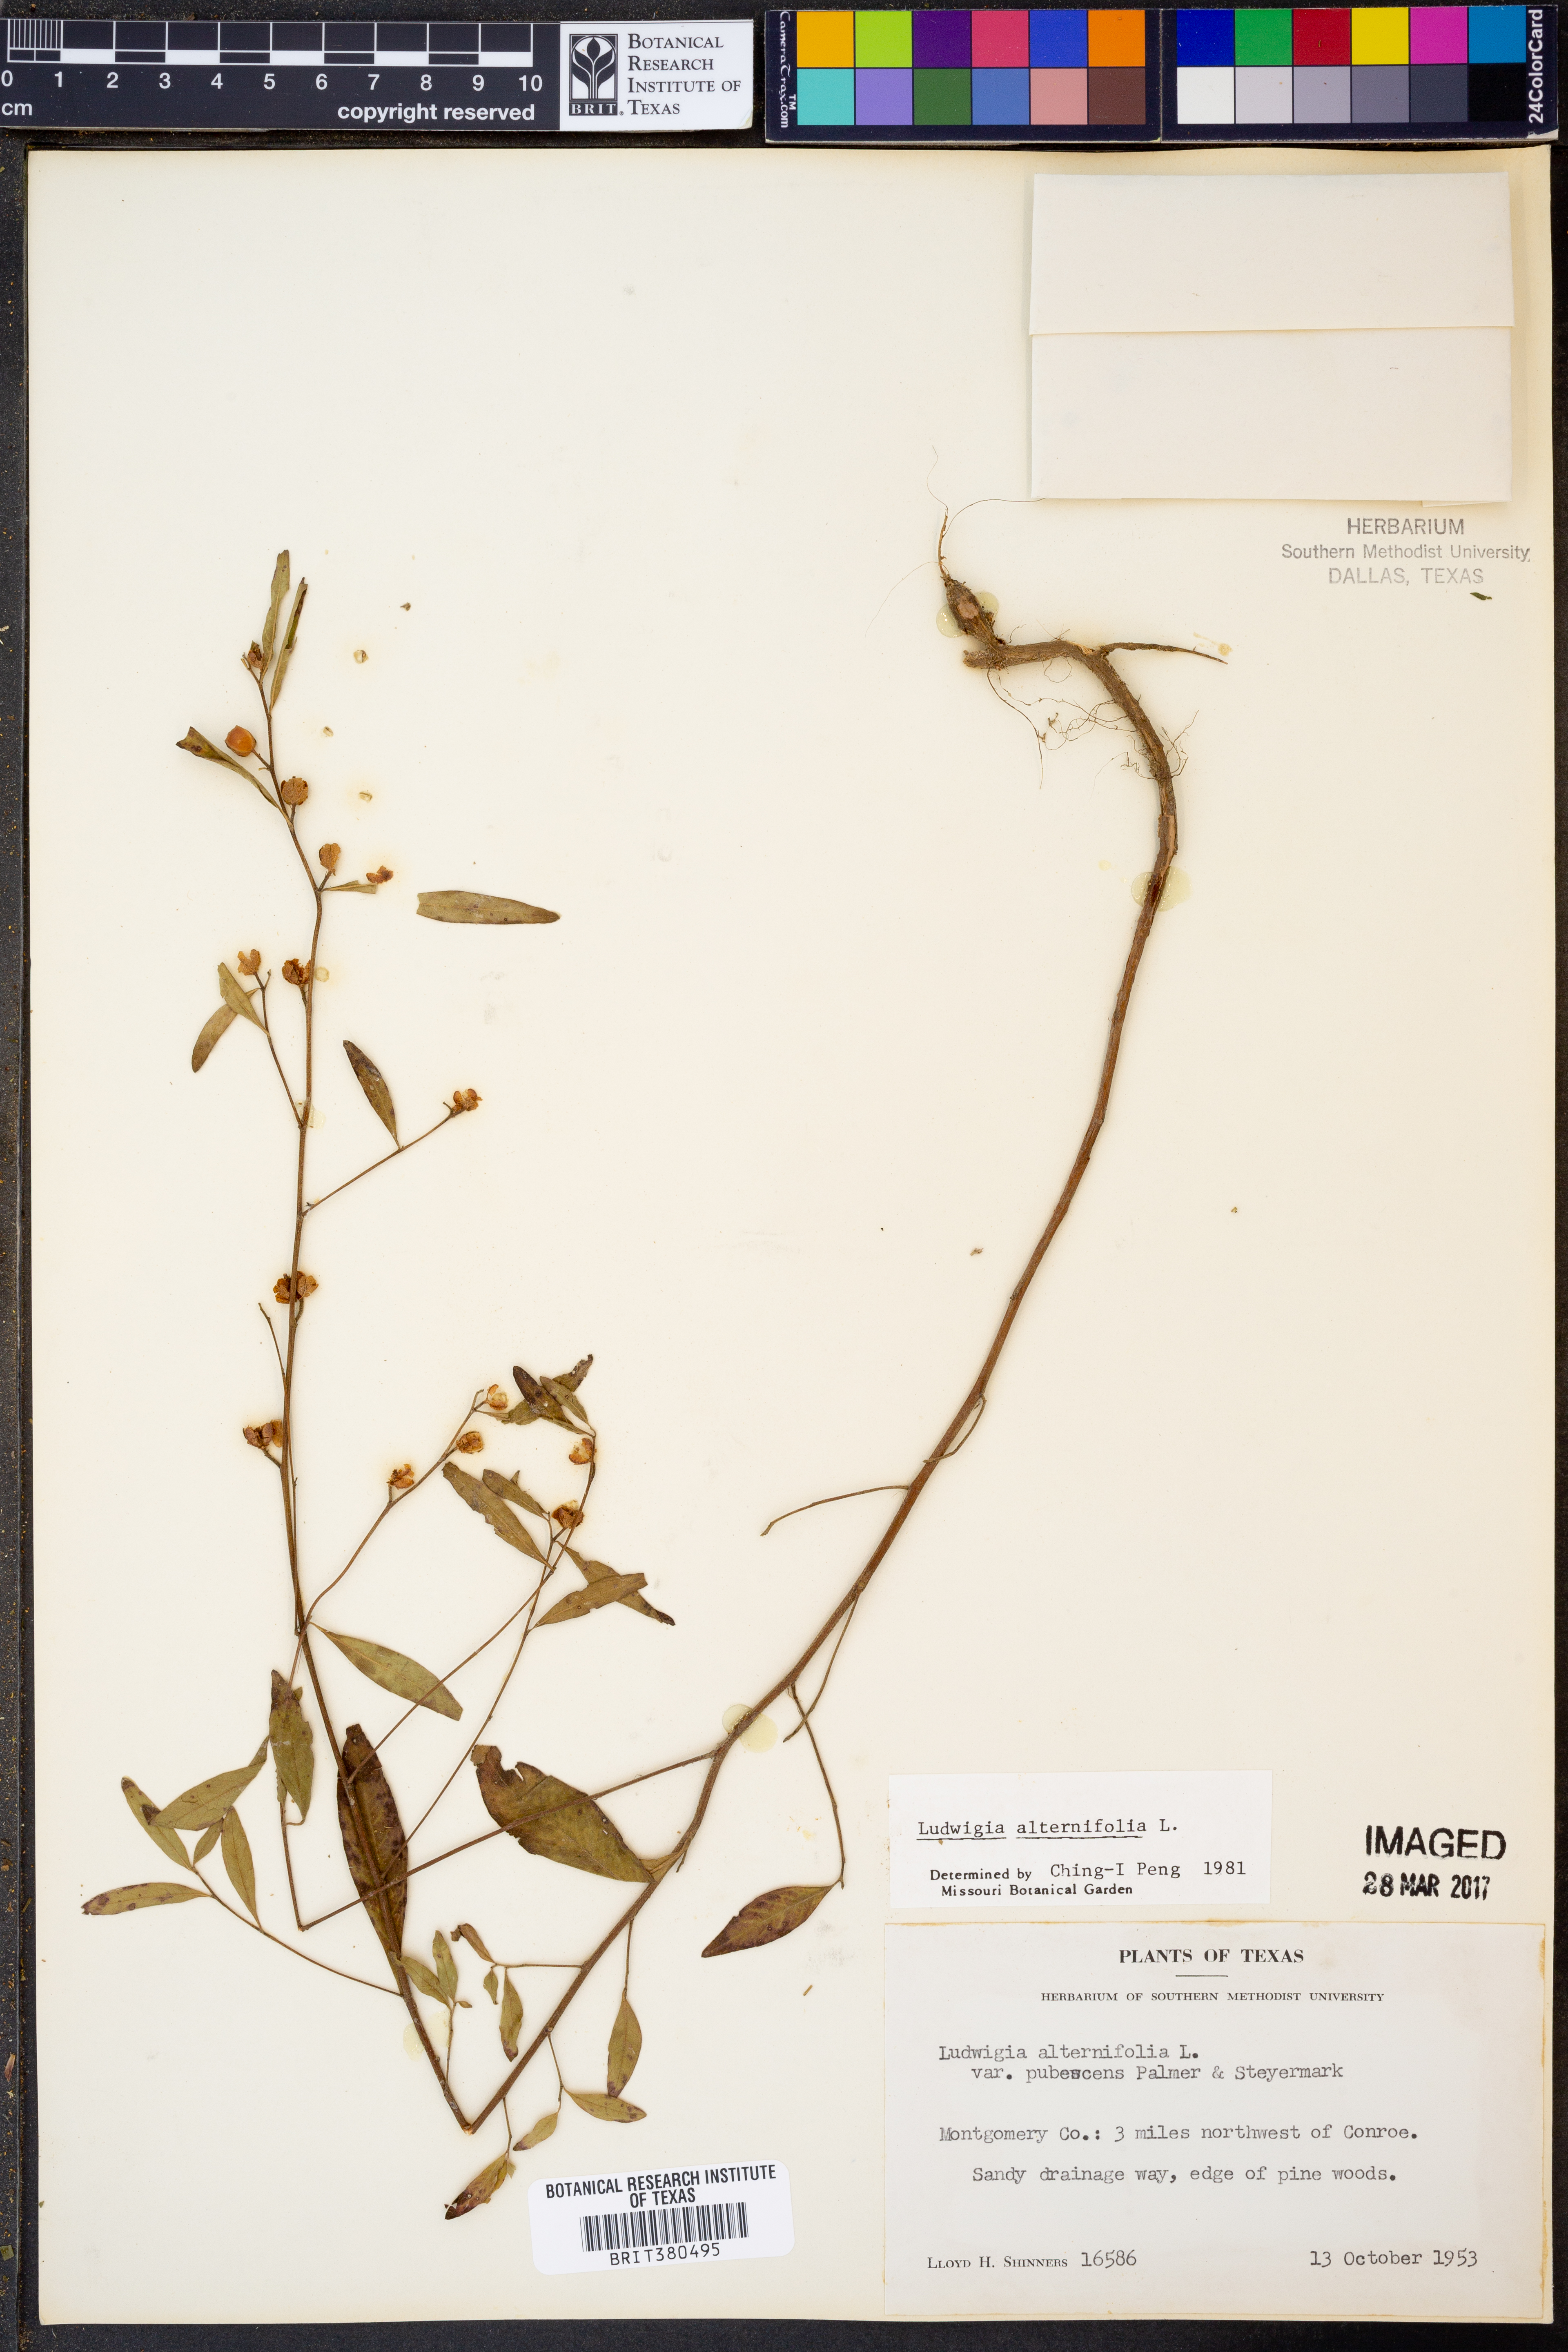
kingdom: Plantae
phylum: Tracheophyta
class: Magnoliopsida
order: Myrtales
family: Onagraceae
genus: Ludwigia
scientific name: Ludwigia alternifolia
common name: Rattlebox
